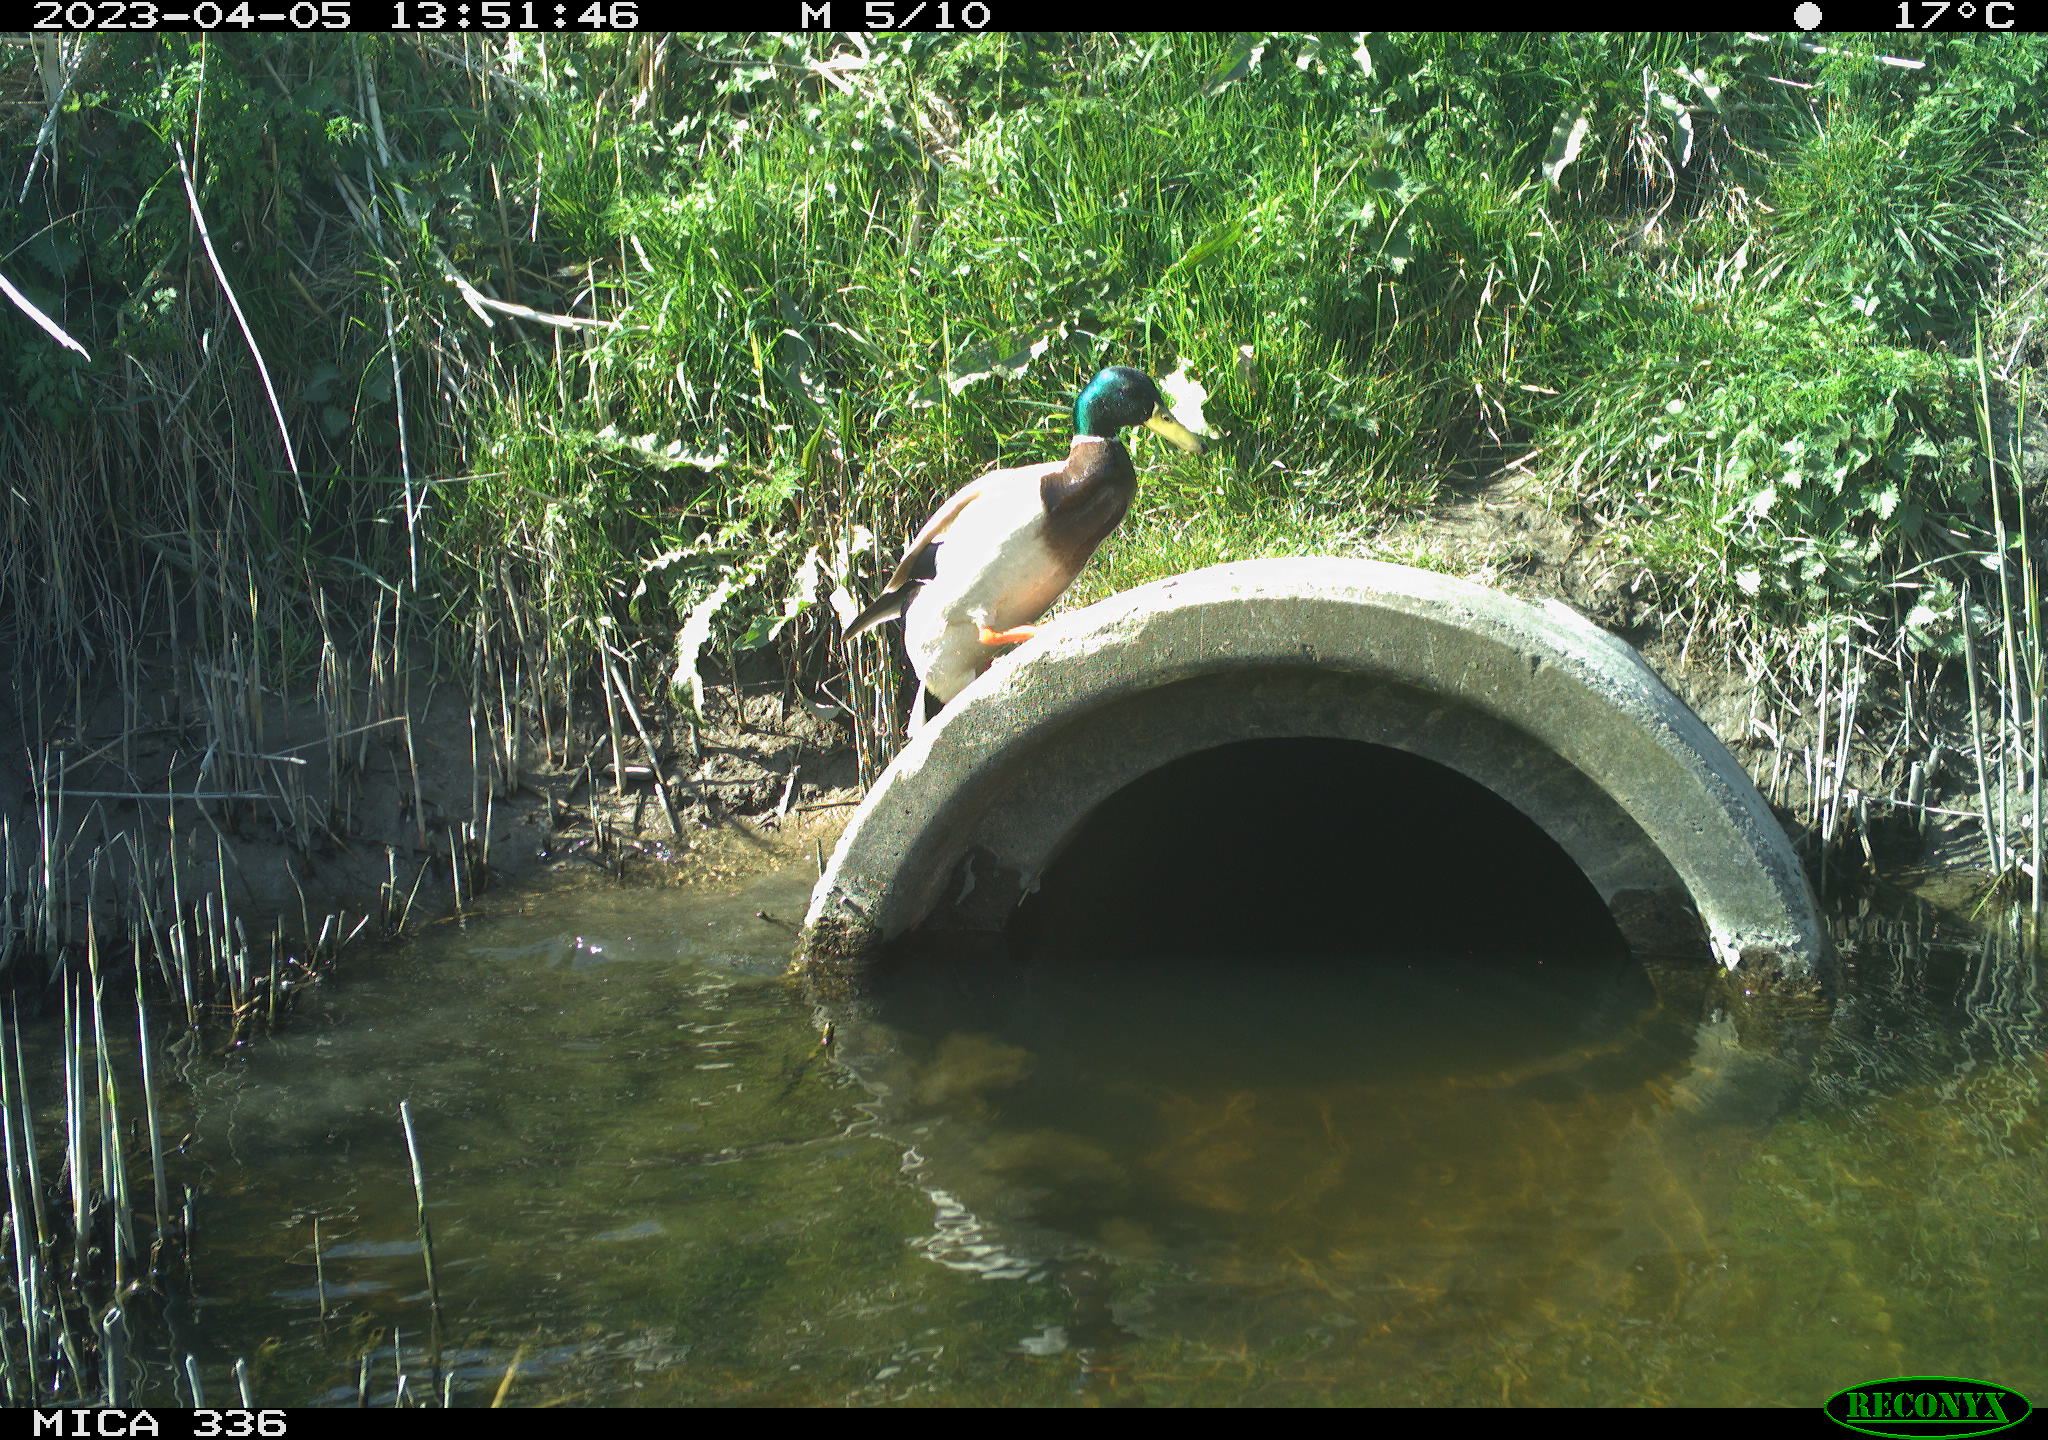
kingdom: Animalia
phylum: Chordata
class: Aves
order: Anseriformes
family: Anatidae
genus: Anas
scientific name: Anas
